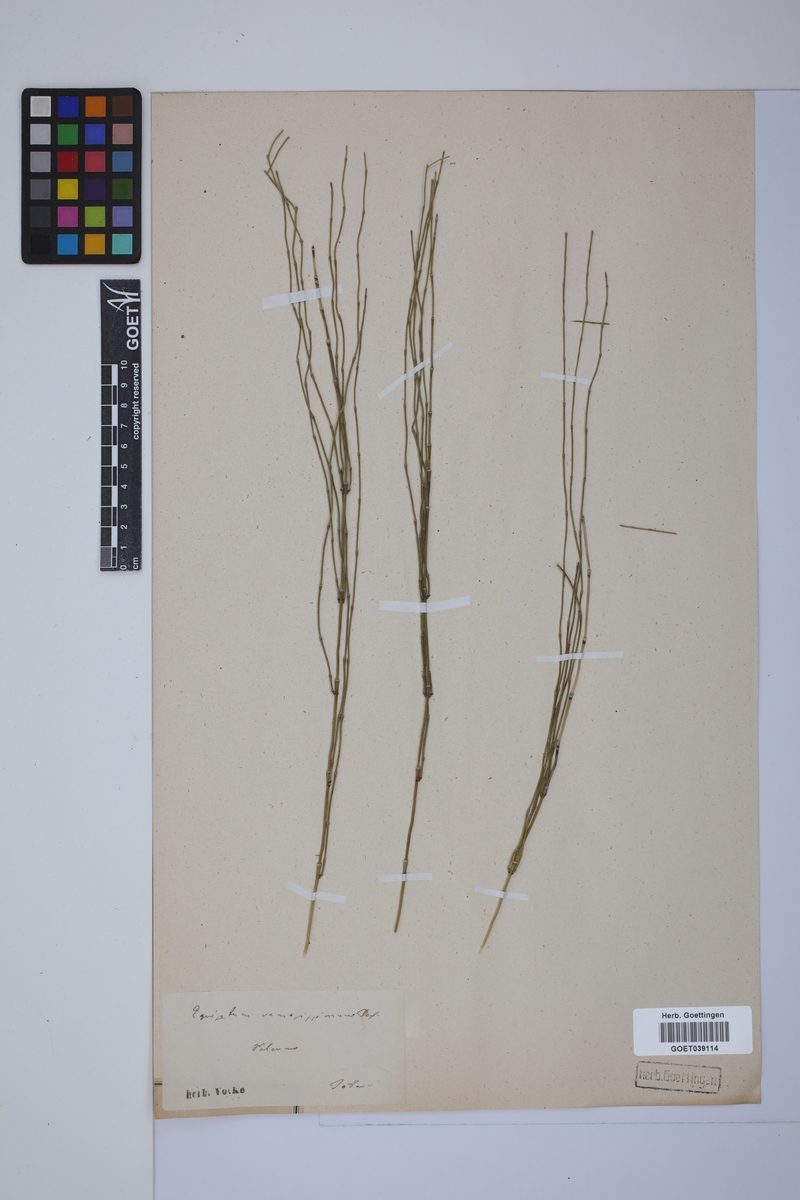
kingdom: Plantae
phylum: Tracheophyta
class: Polypodiopsida
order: Equisetales
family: Equisetaceae
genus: Equisetum
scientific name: Equisetum giganteum
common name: Giant horsetail
